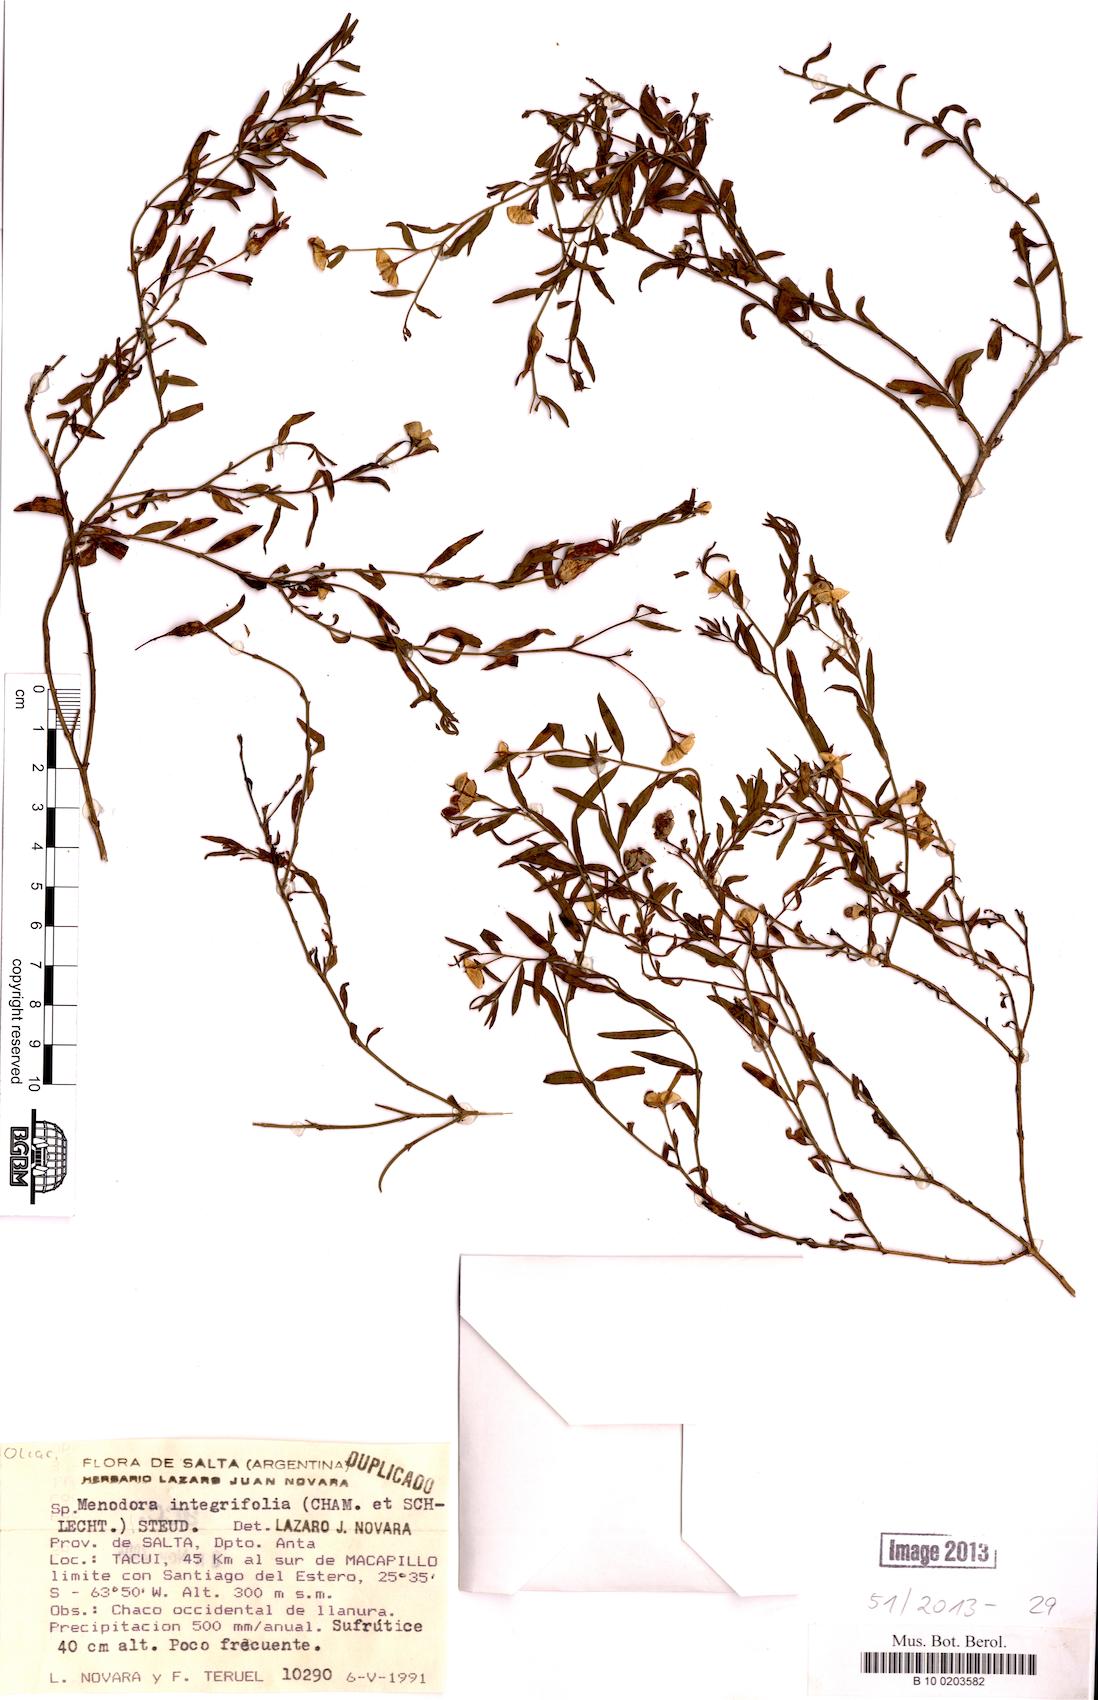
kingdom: Plantae
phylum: Tracheophyta
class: Magnoliopsida
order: Lamiales
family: Oleaceae
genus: Menodora
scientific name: Menodora integrifolia
